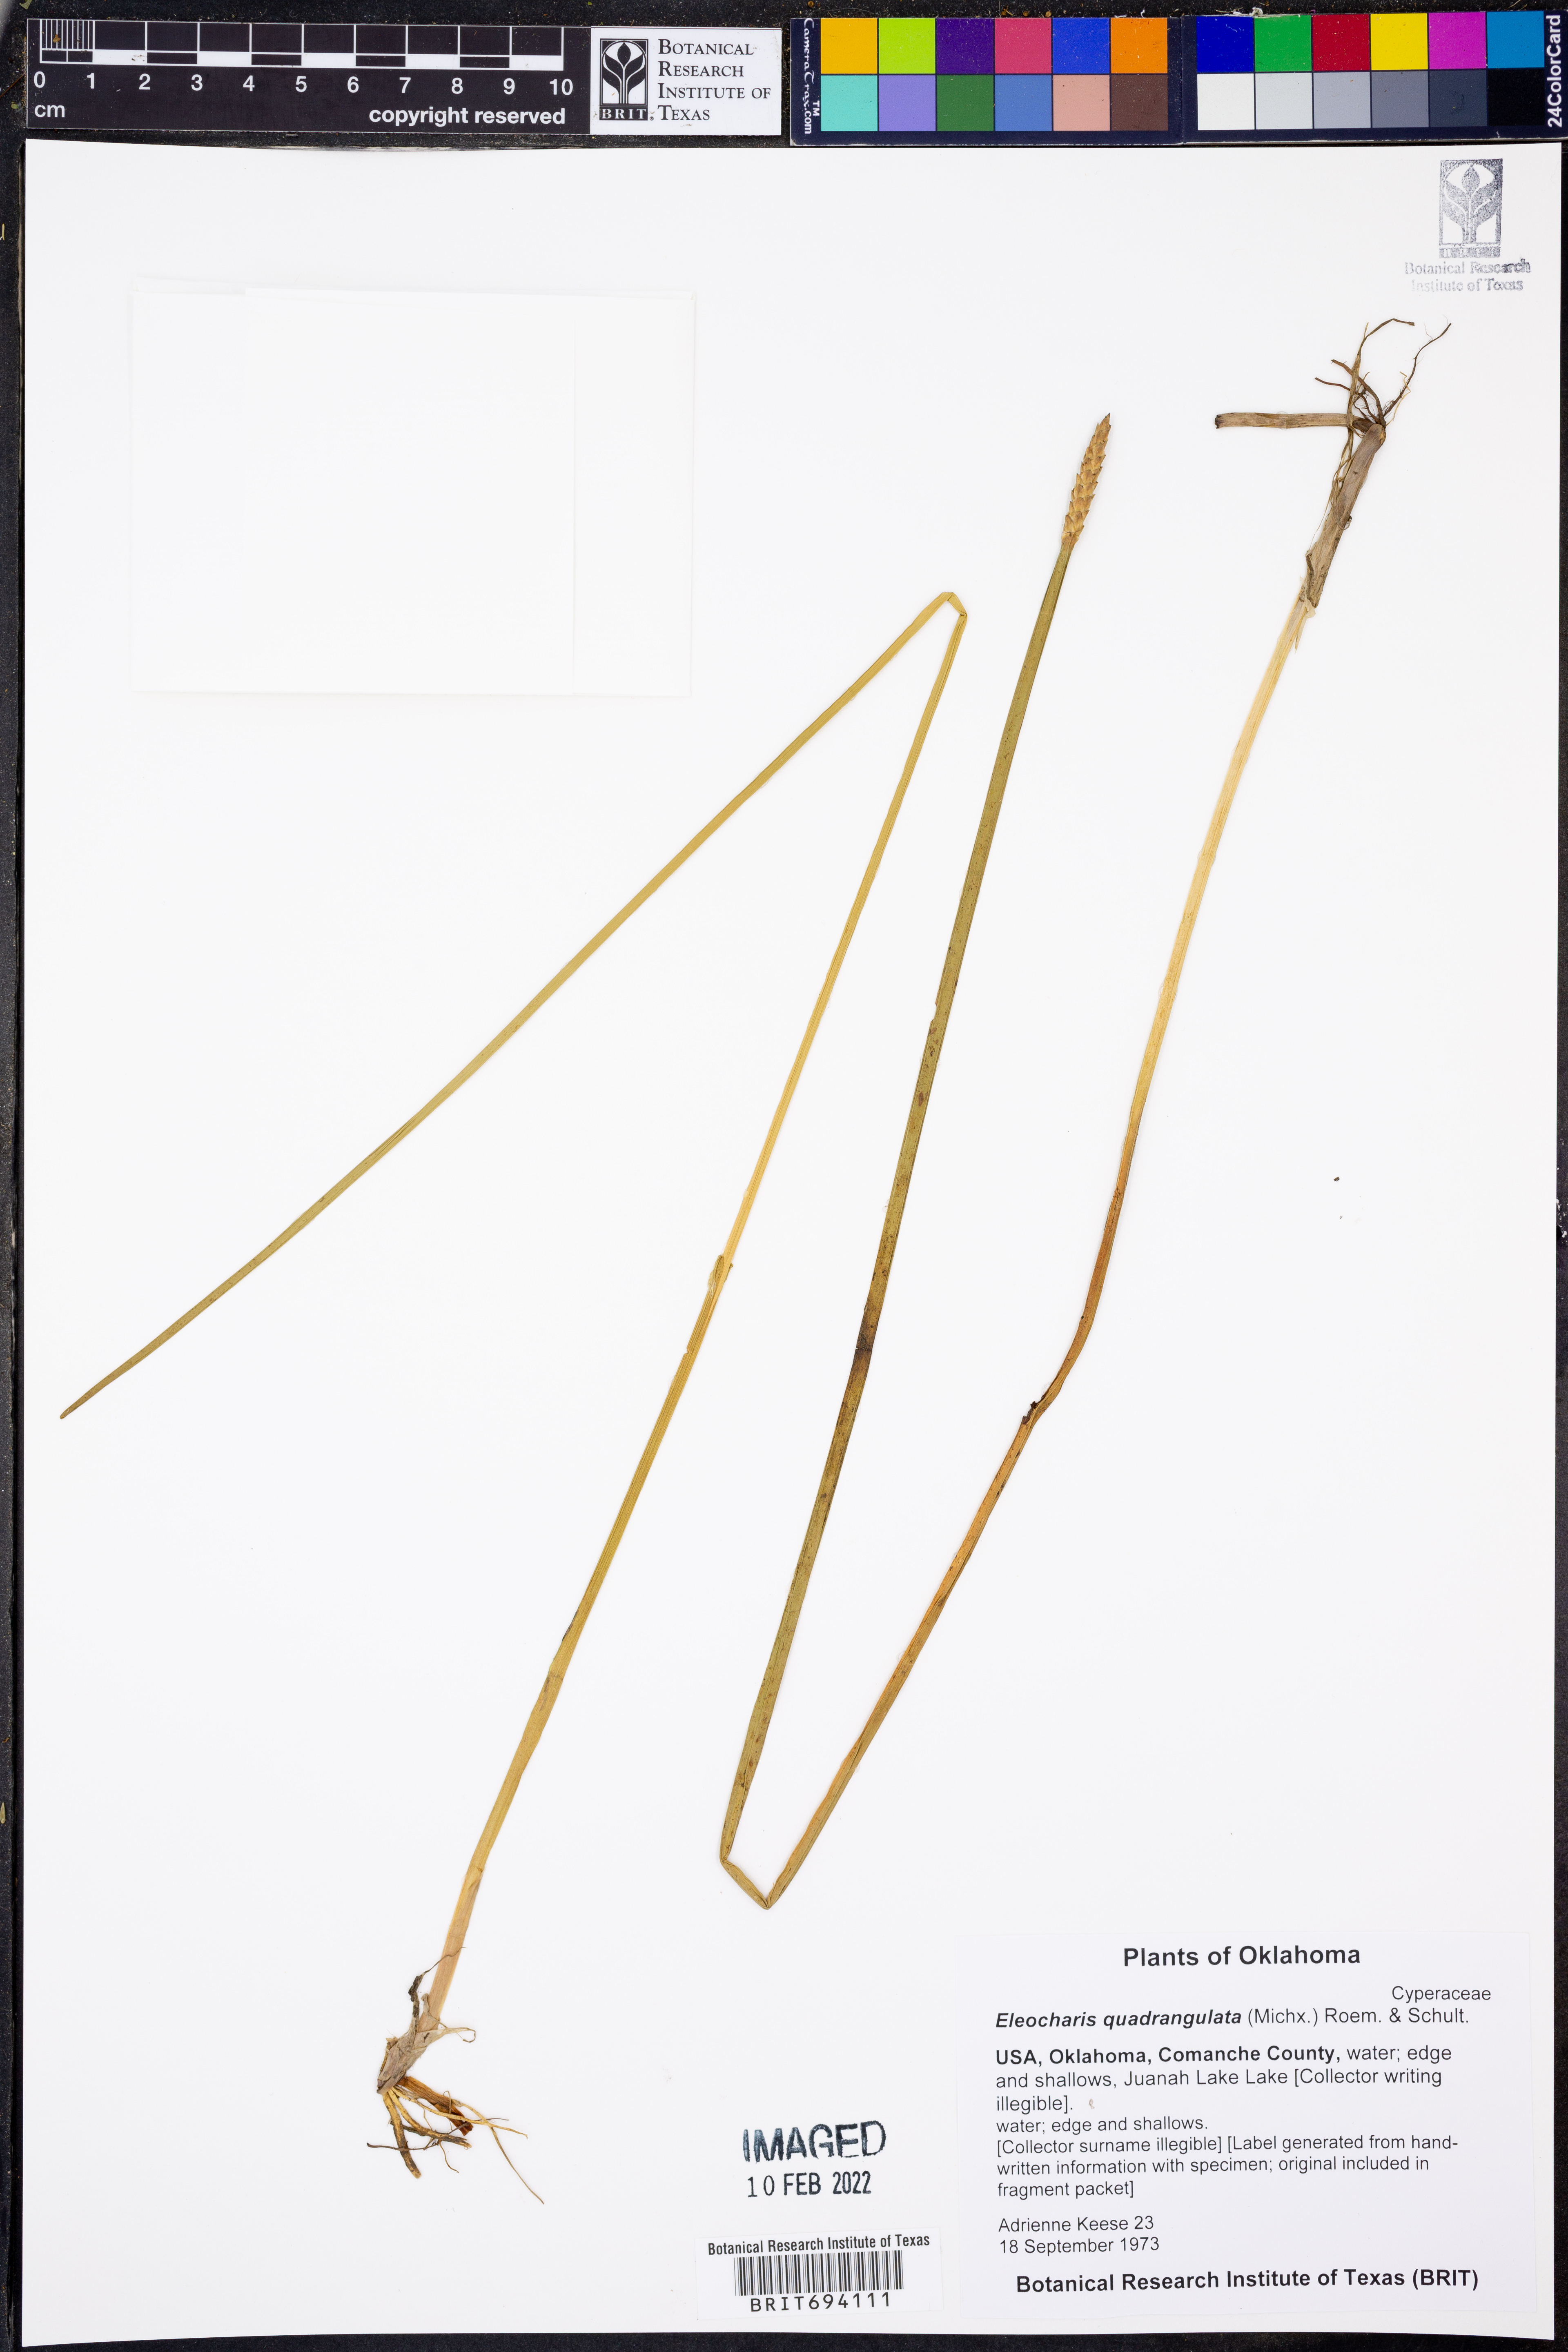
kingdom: Plantae
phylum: Tracheophyta
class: Liliopsida
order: Poales
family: Cyperaceae
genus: Eleocharis
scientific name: Eleocharis quadrangulata
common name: Square-stem spike-rush
